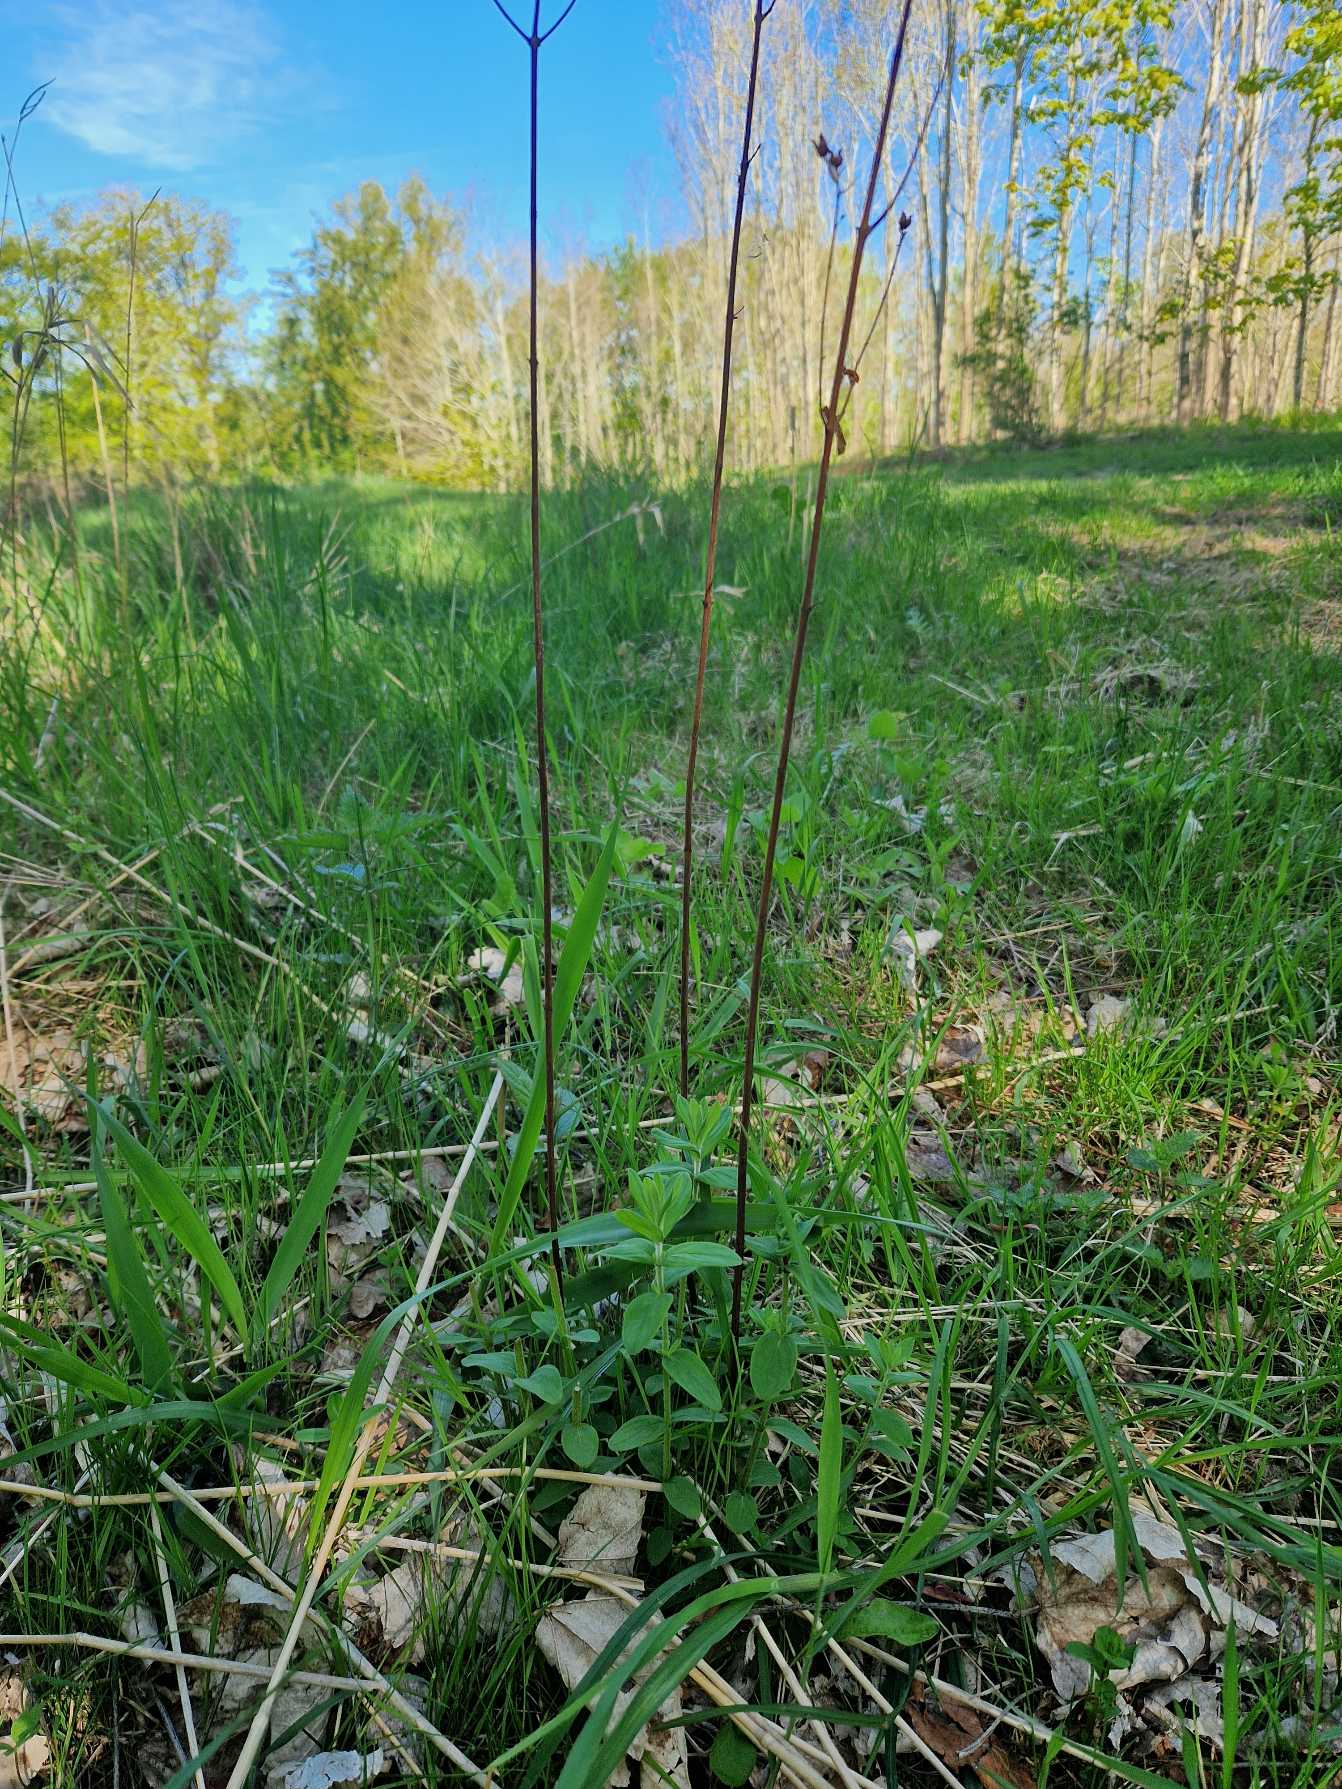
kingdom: Plantae
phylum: Tracheophyta
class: Magnoliopsida
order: Malpighiales
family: Hypericaceae
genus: Hypericum
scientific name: Hypericum hirsutum
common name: Lådden perikon
